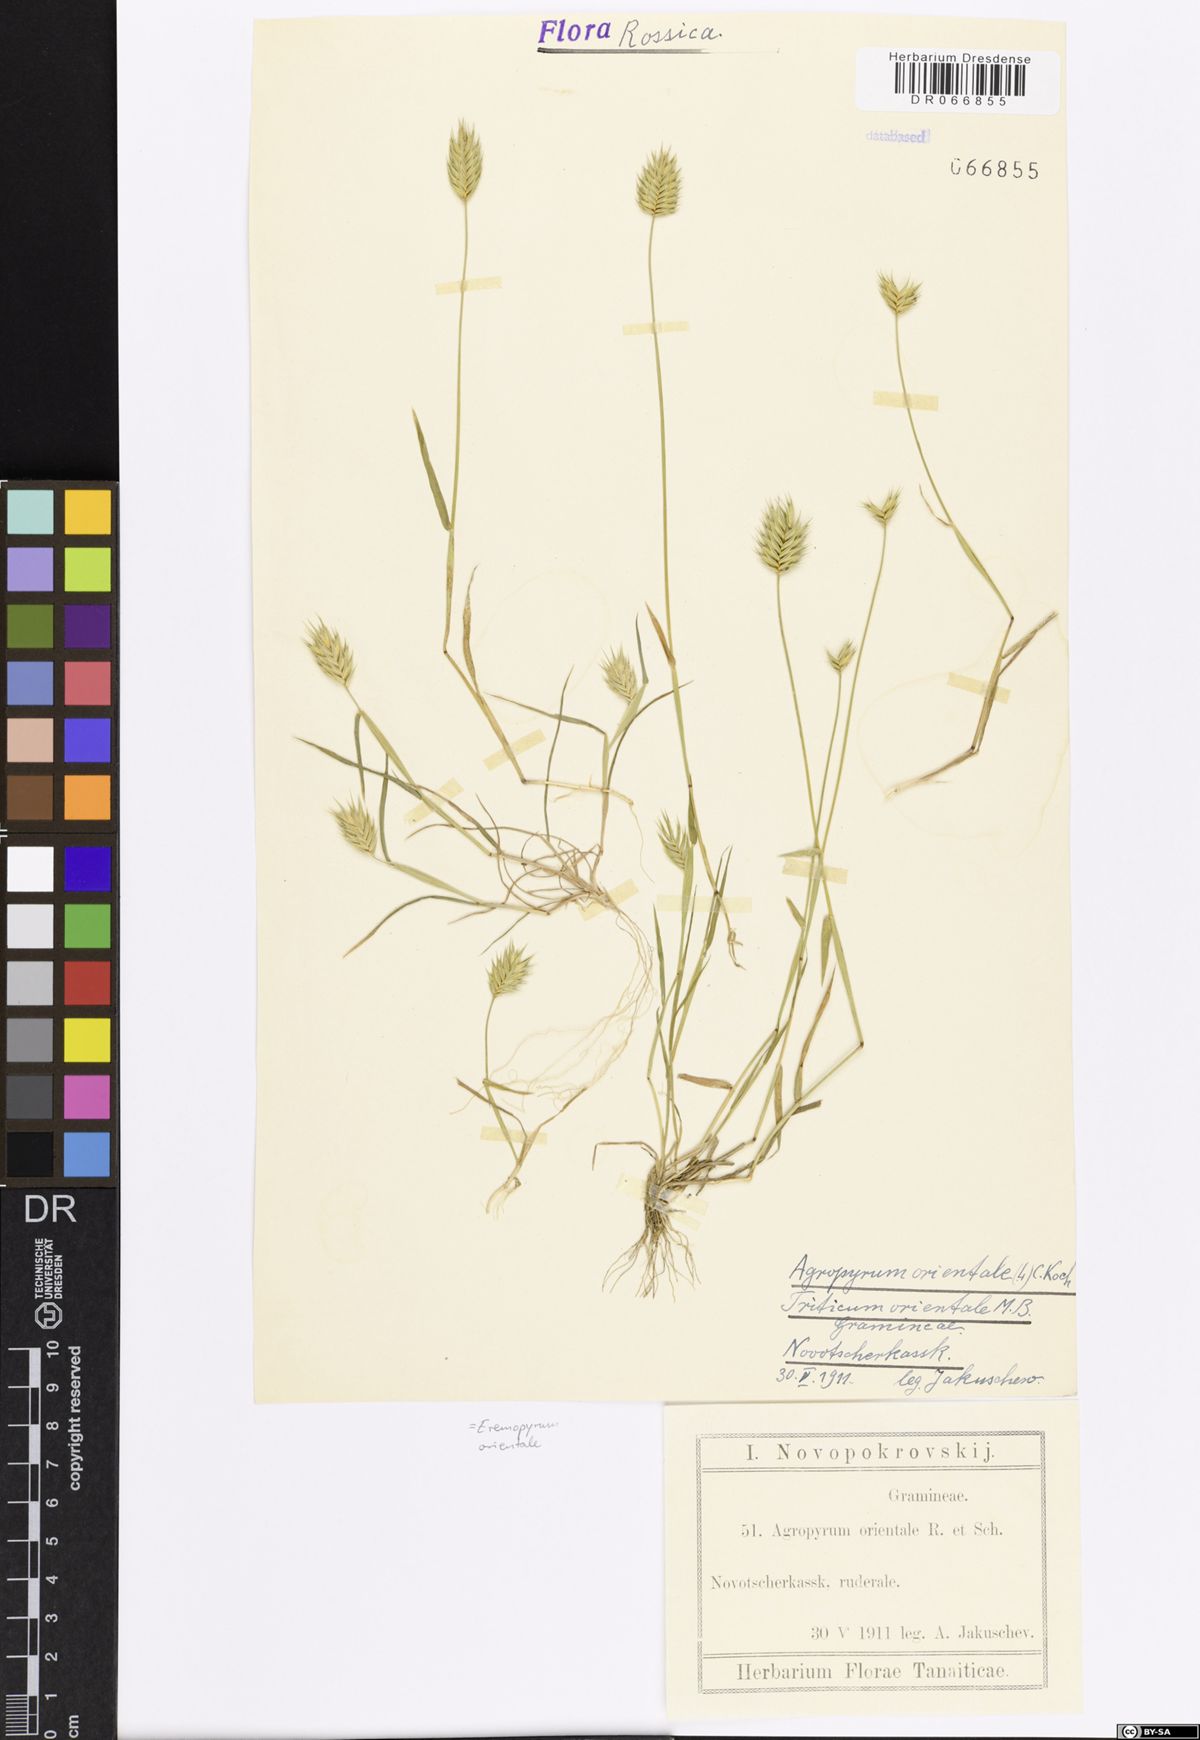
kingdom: Plantae
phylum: Tracheophyta
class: Liliopsida
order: Poales
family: Poaceae
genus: Eremopyrum
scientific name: Eremopyrum orientale
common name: Oriental false wheatgrass
